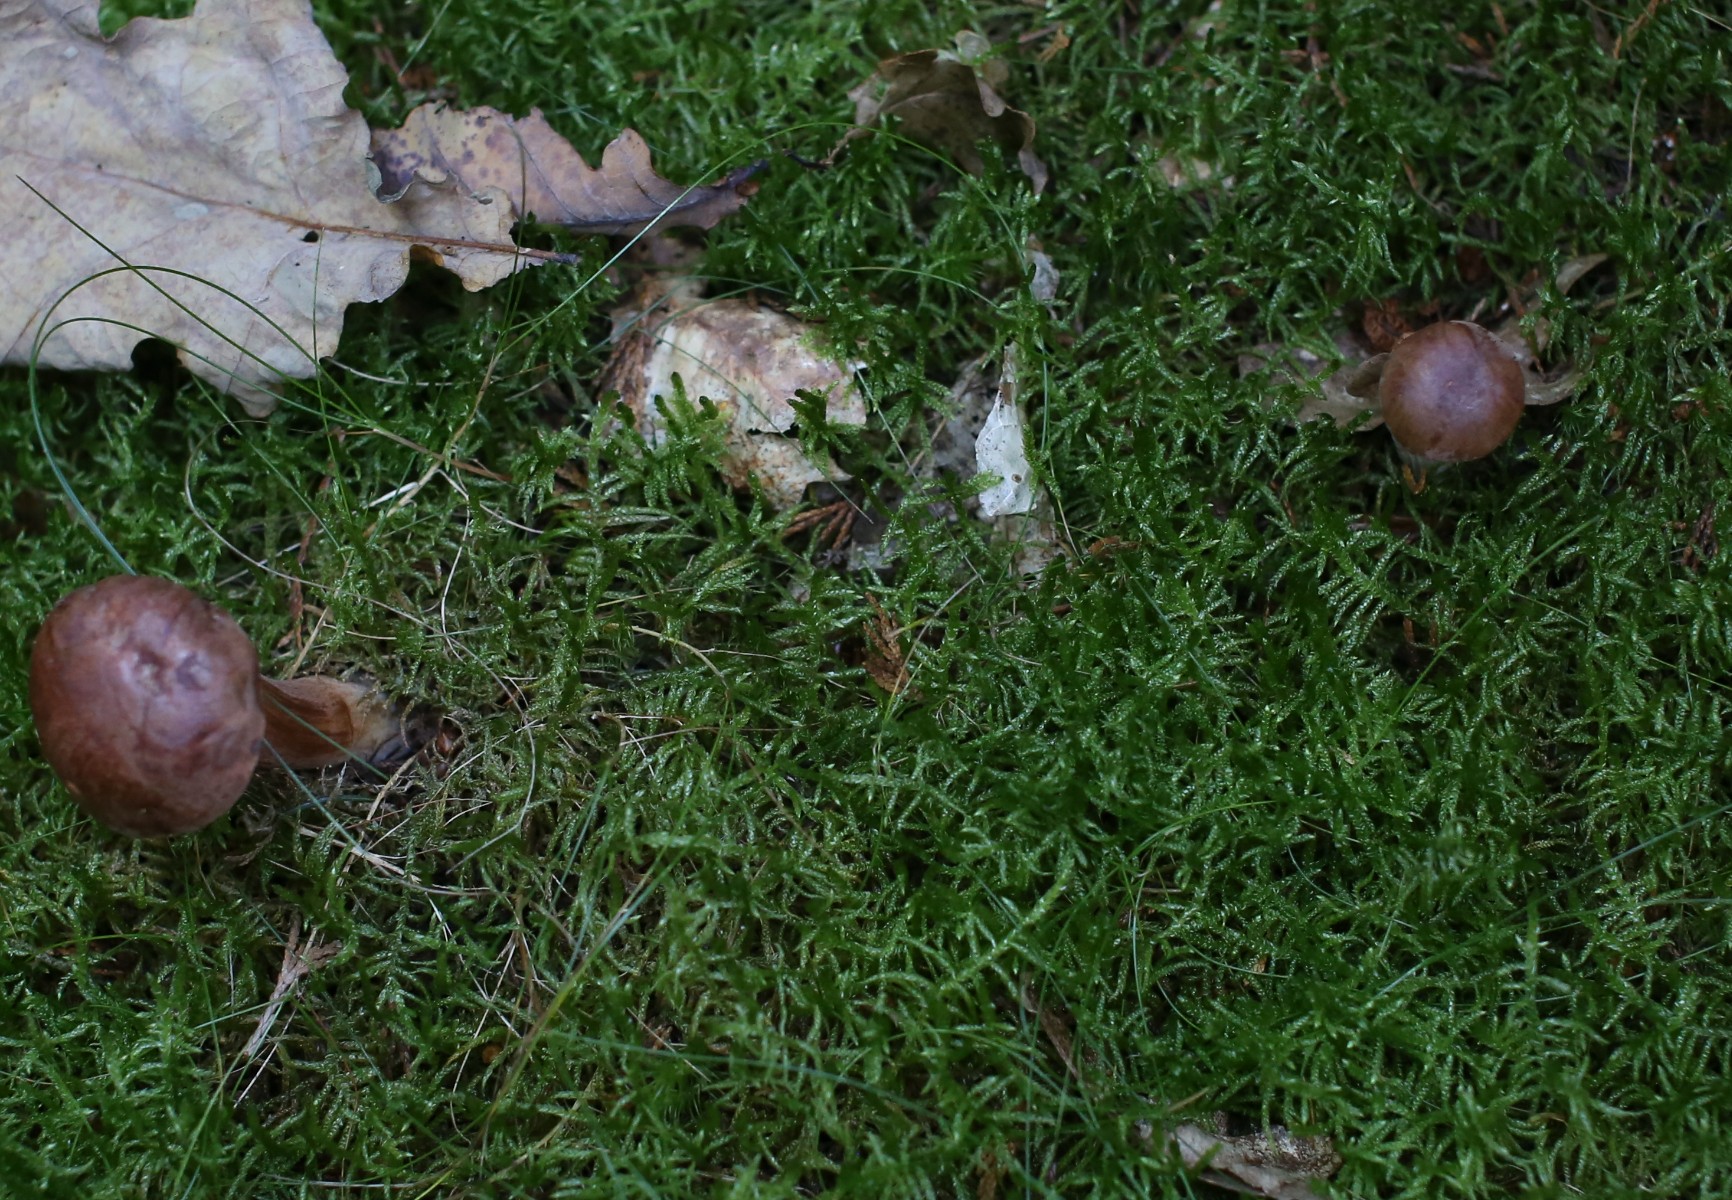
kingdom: Fungi
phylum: Basidiomycota
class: Agaricomycetes
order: Boletales
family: Boletaceae
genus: Imleria
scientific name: Imleria badia
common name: brunstokket rørhat
